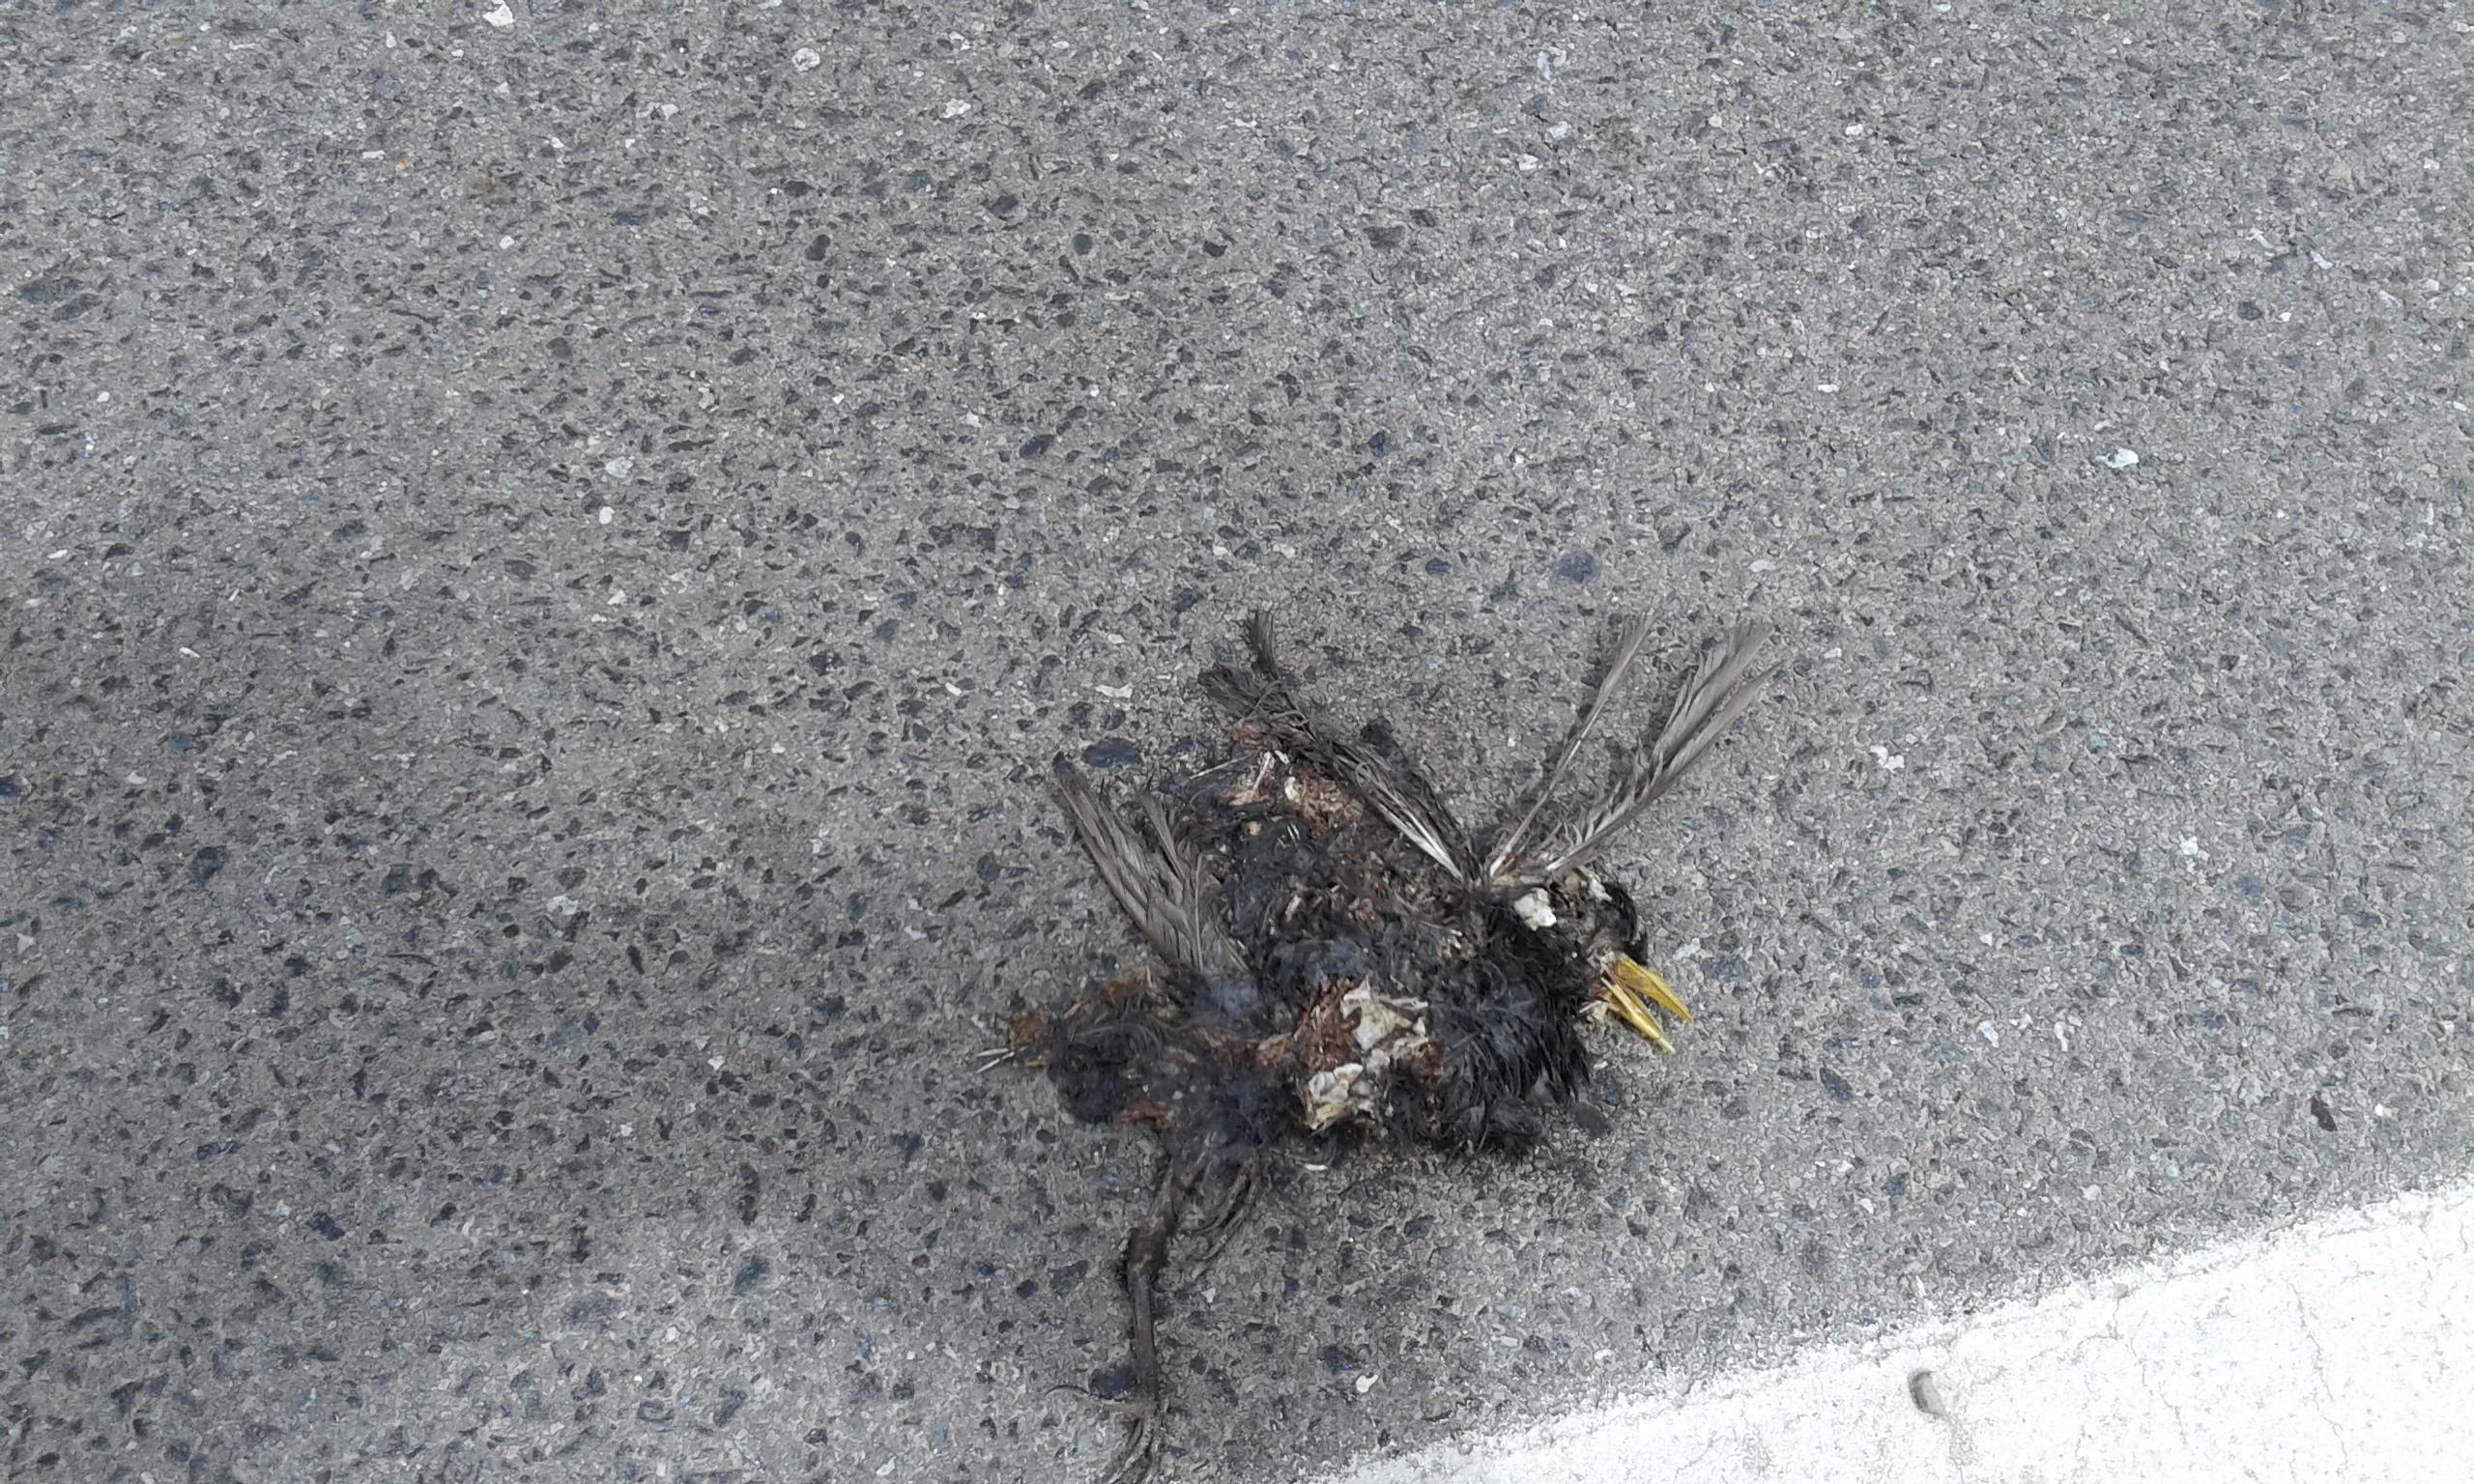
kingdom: Animalia
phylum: Chordata
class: Aves
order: Passeriformes
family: Turdidae
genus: Turdus
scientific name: Turdus merula
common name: Common blackbird
